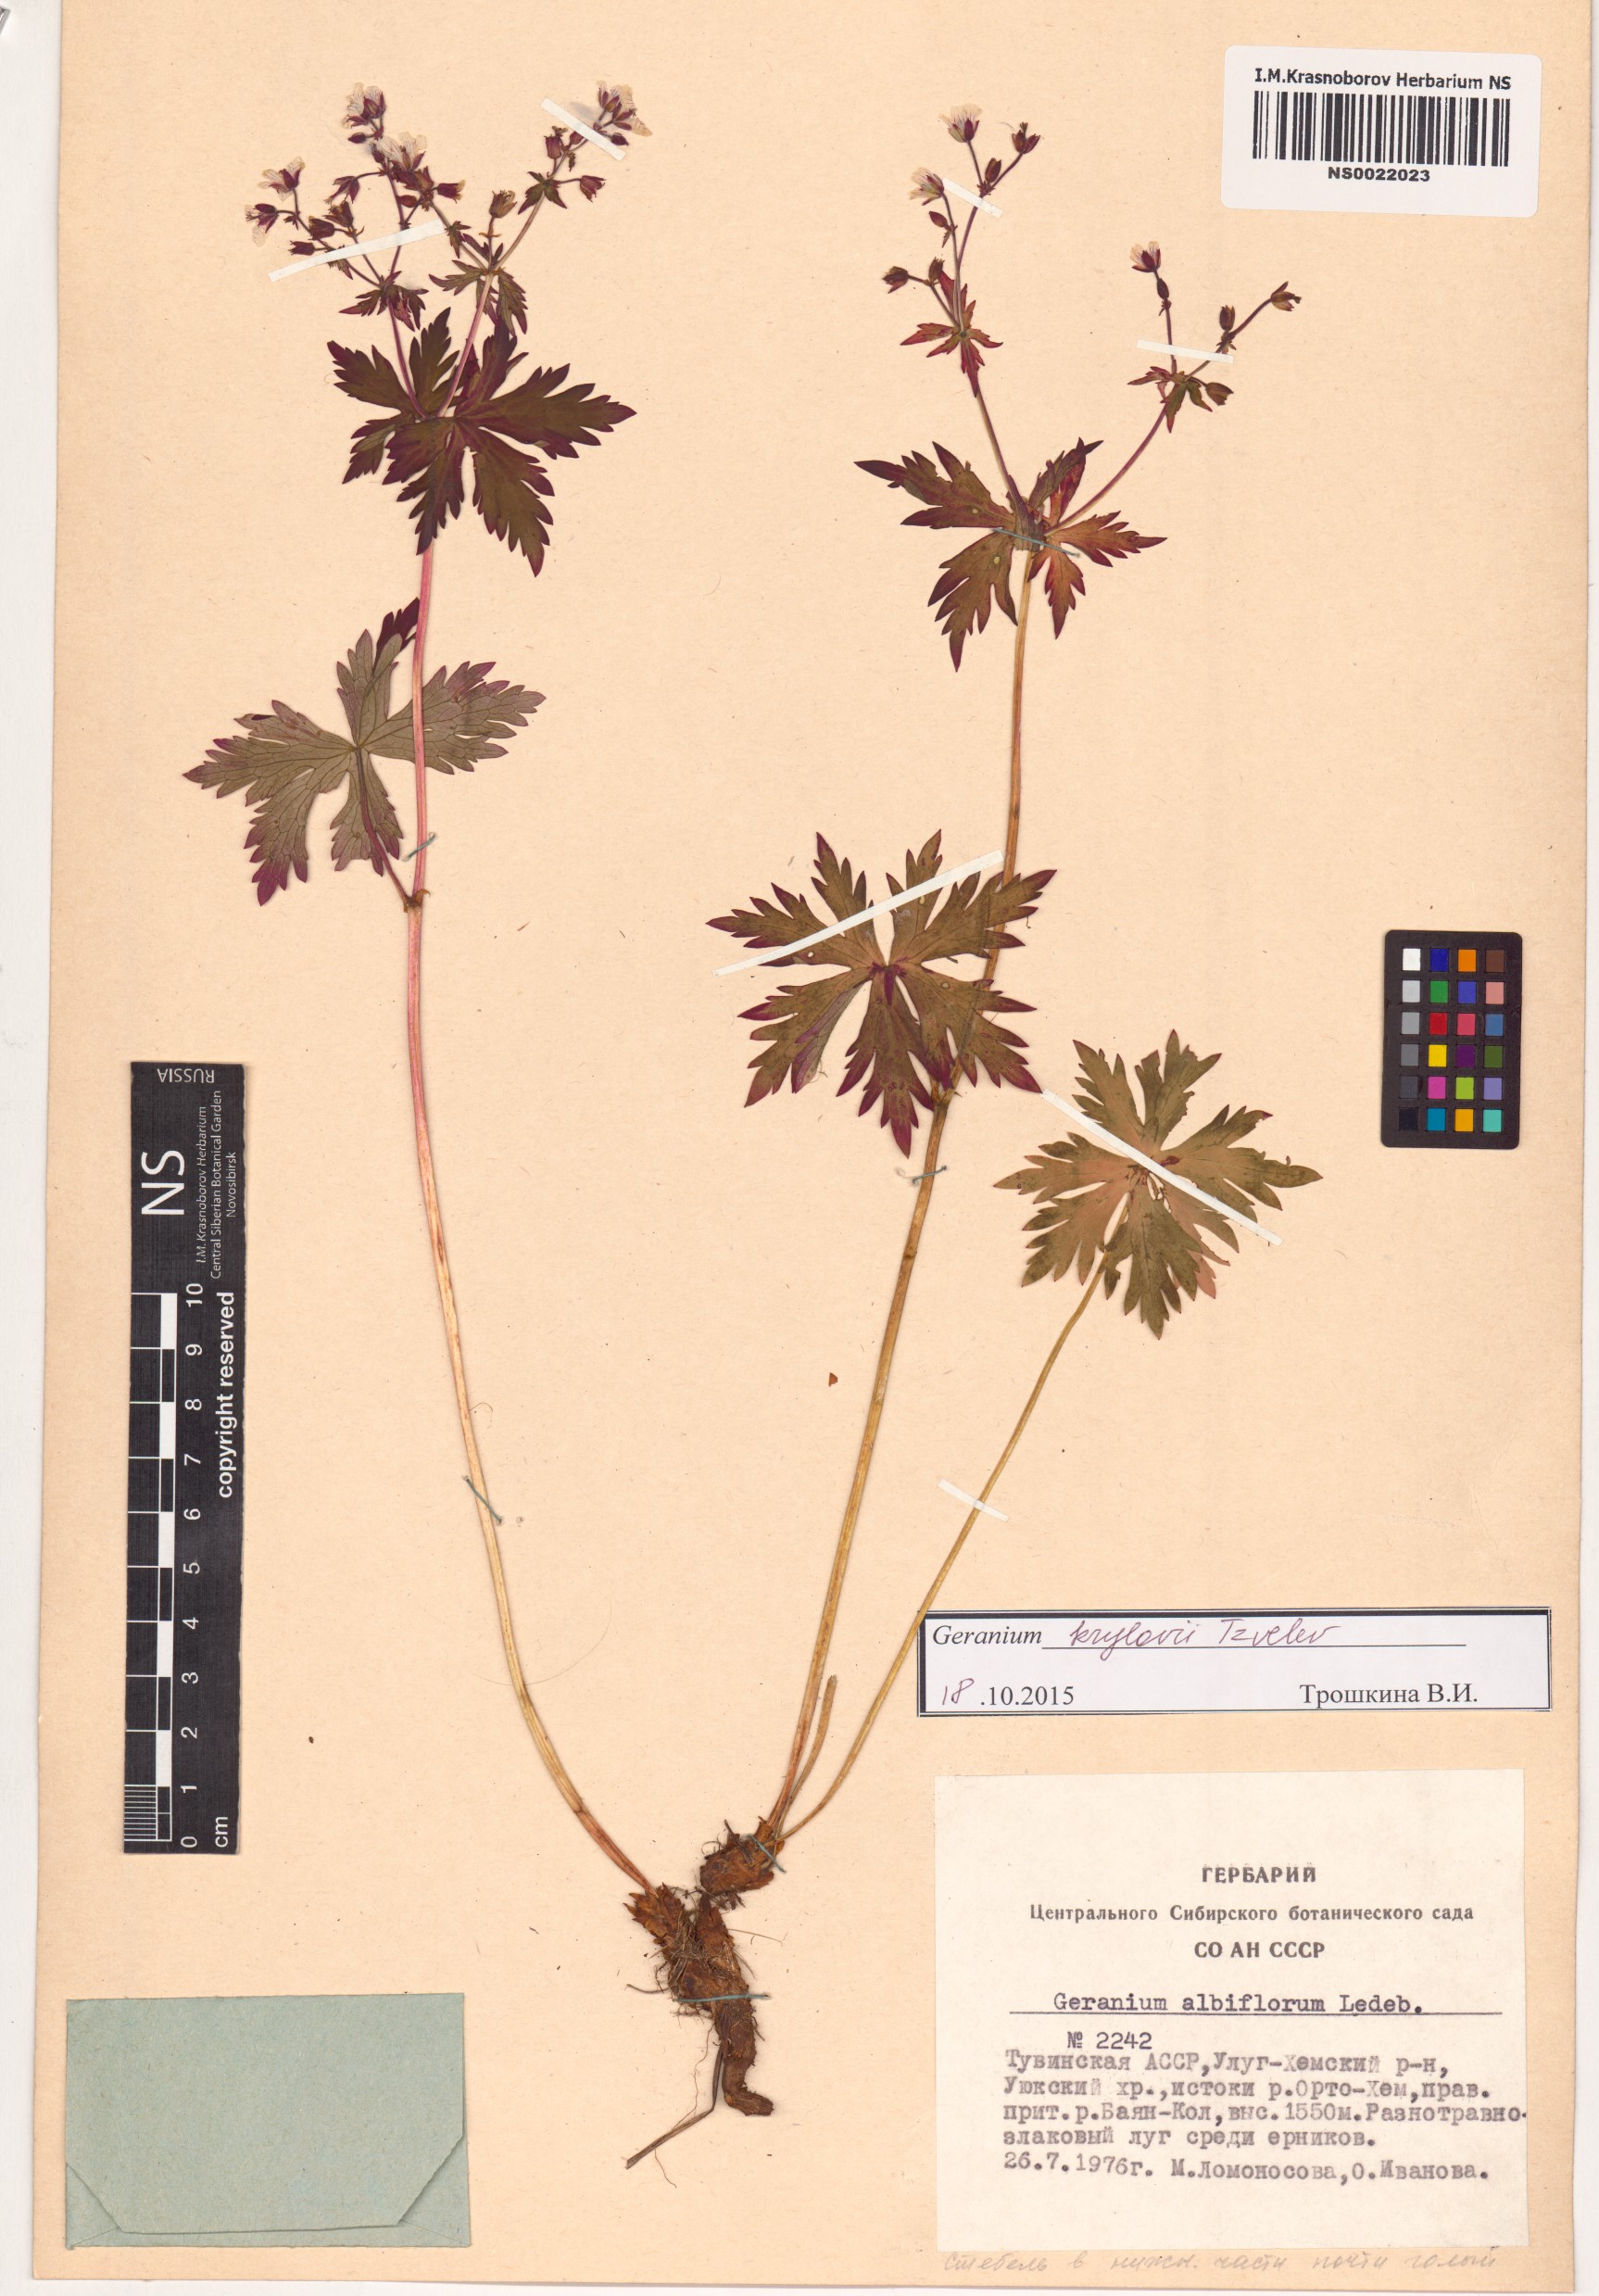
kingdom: Plantae
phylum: Tracheophyta
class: Magnoliopsida
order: Geraniales
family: Geraniaceae
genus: Geranium
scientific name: Geranium sylvaticum
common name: Wood crane's-bill
